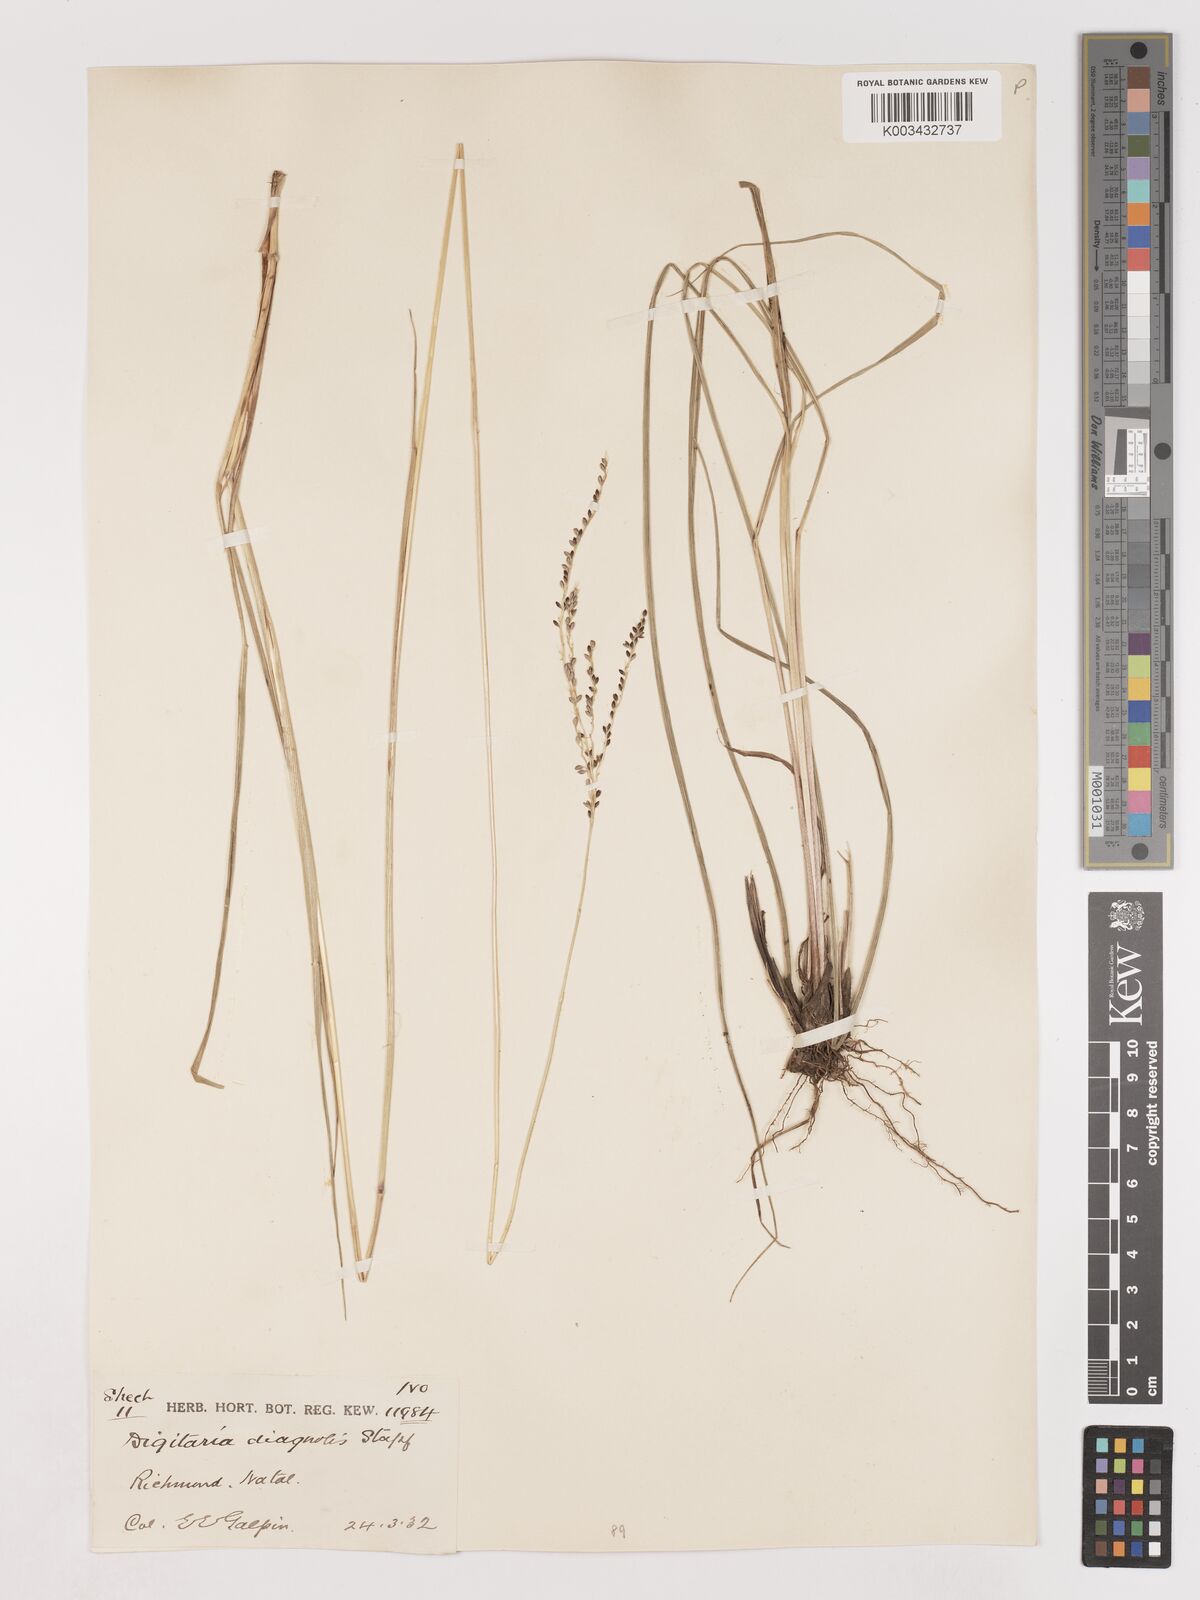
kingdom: Plantae
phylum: Tracheophyta
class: Liliopsida
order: Poales
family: Poaceae
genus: Digitaria
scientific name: Digitaria diagonalis
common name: Brown-seed finger grass
